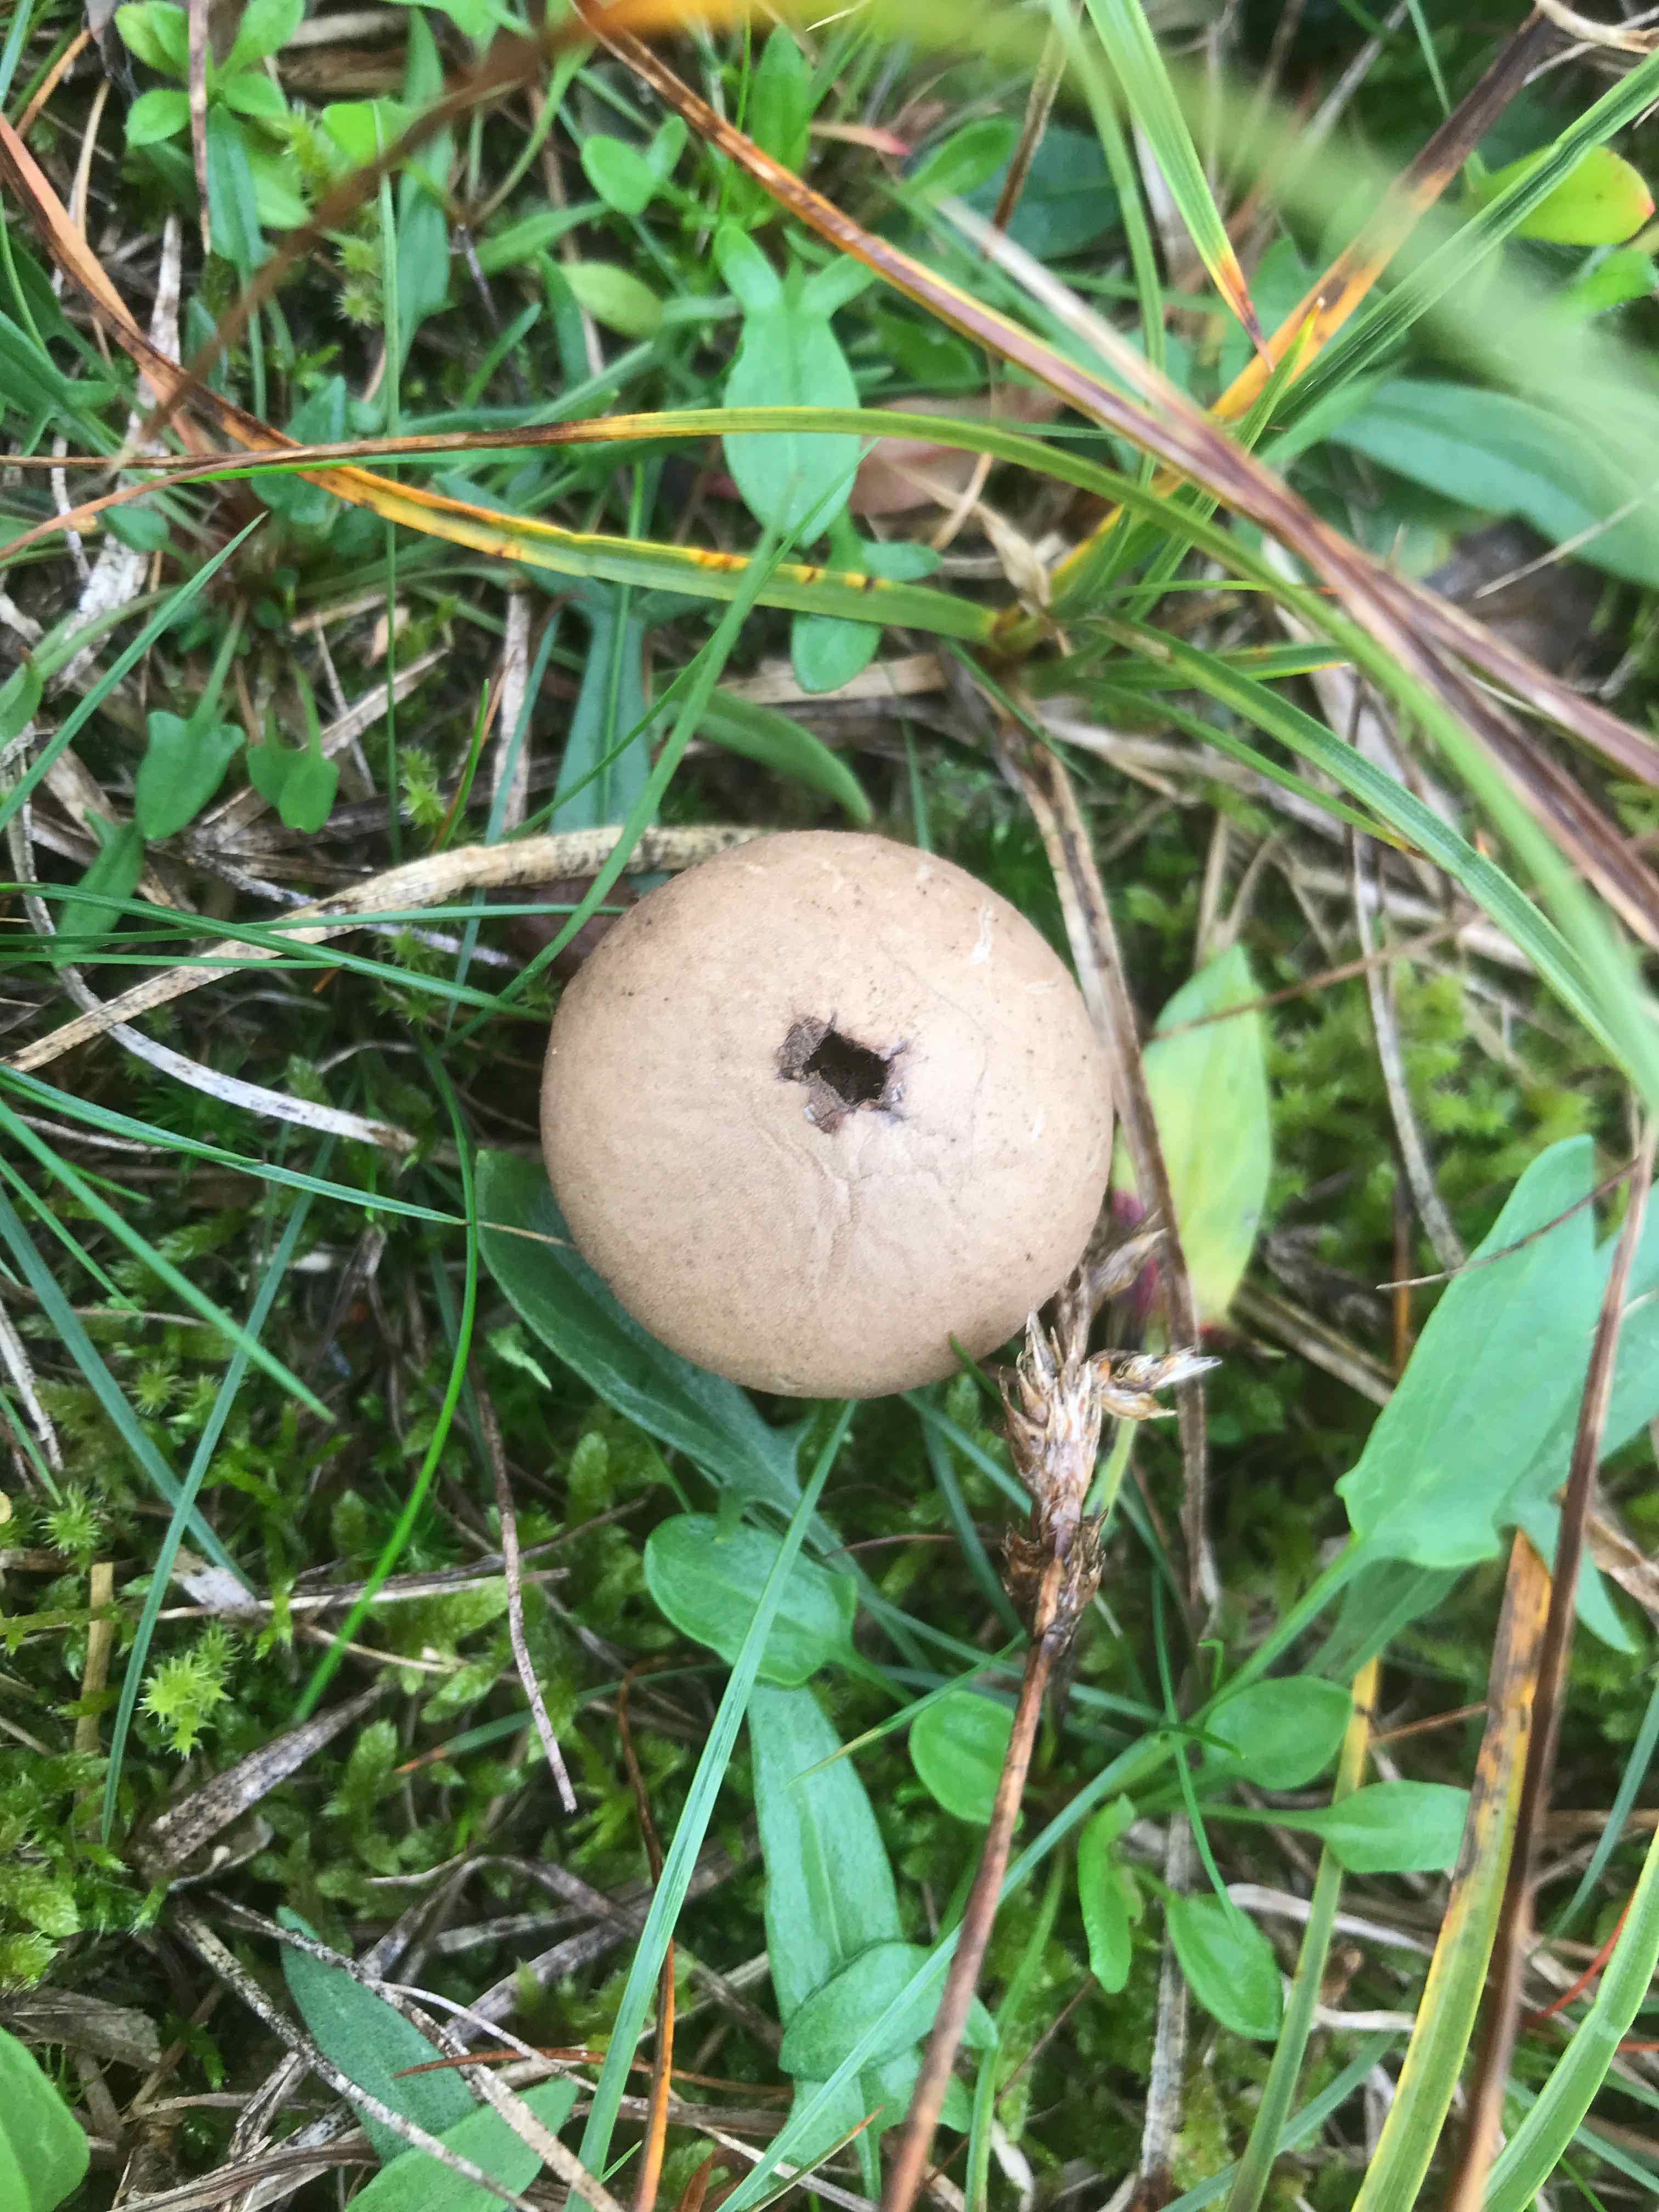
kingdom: Fungi
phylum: Basidiomycota
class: Agaricomycetes
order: Agaricales
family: Lycoperdaceae
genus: Lycoperdon
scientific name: Lycoperdon lividum
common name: mark-støvbold
